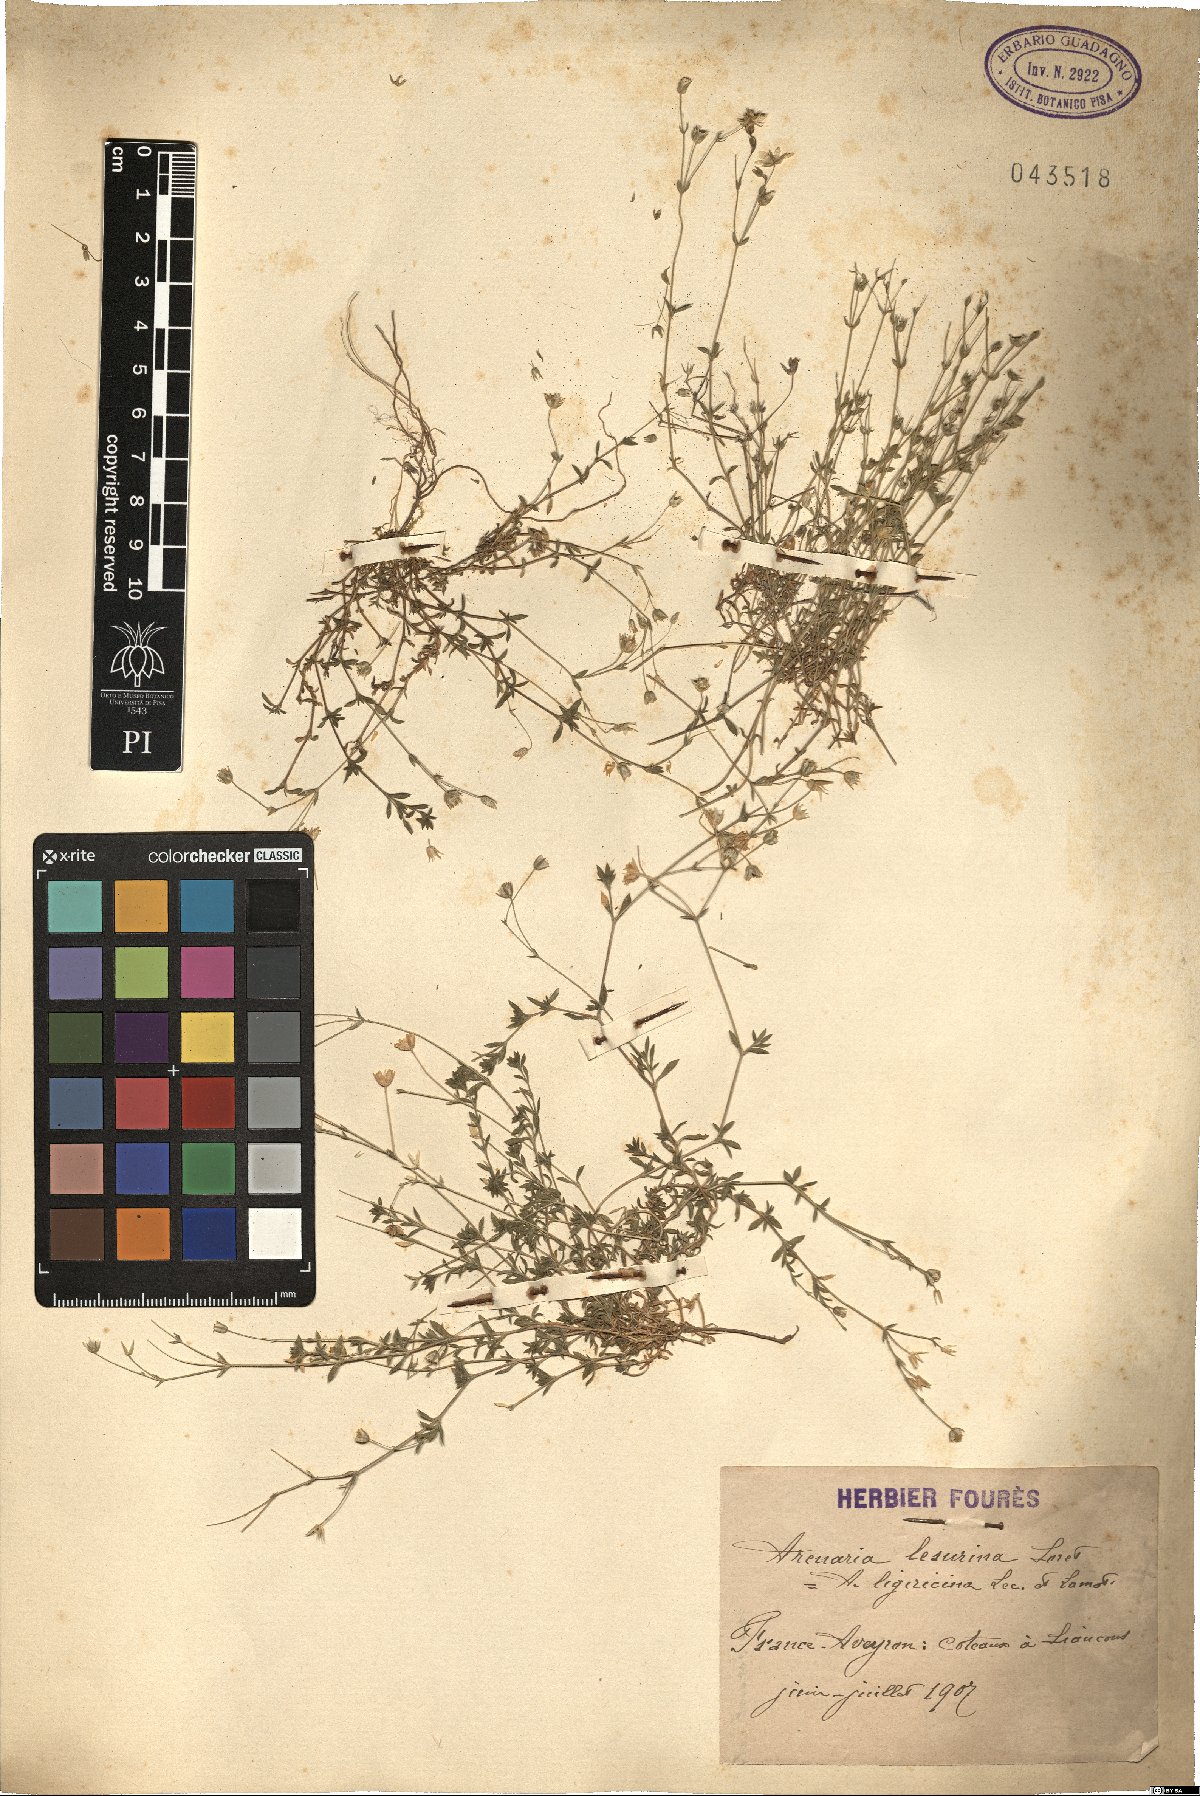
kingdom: Plantae
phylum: Tracheophyta
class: Magnoliopsida
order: Caryophyllales
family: Caryophyllaceae
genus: Arenaria
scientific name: Arenaria ligericina
